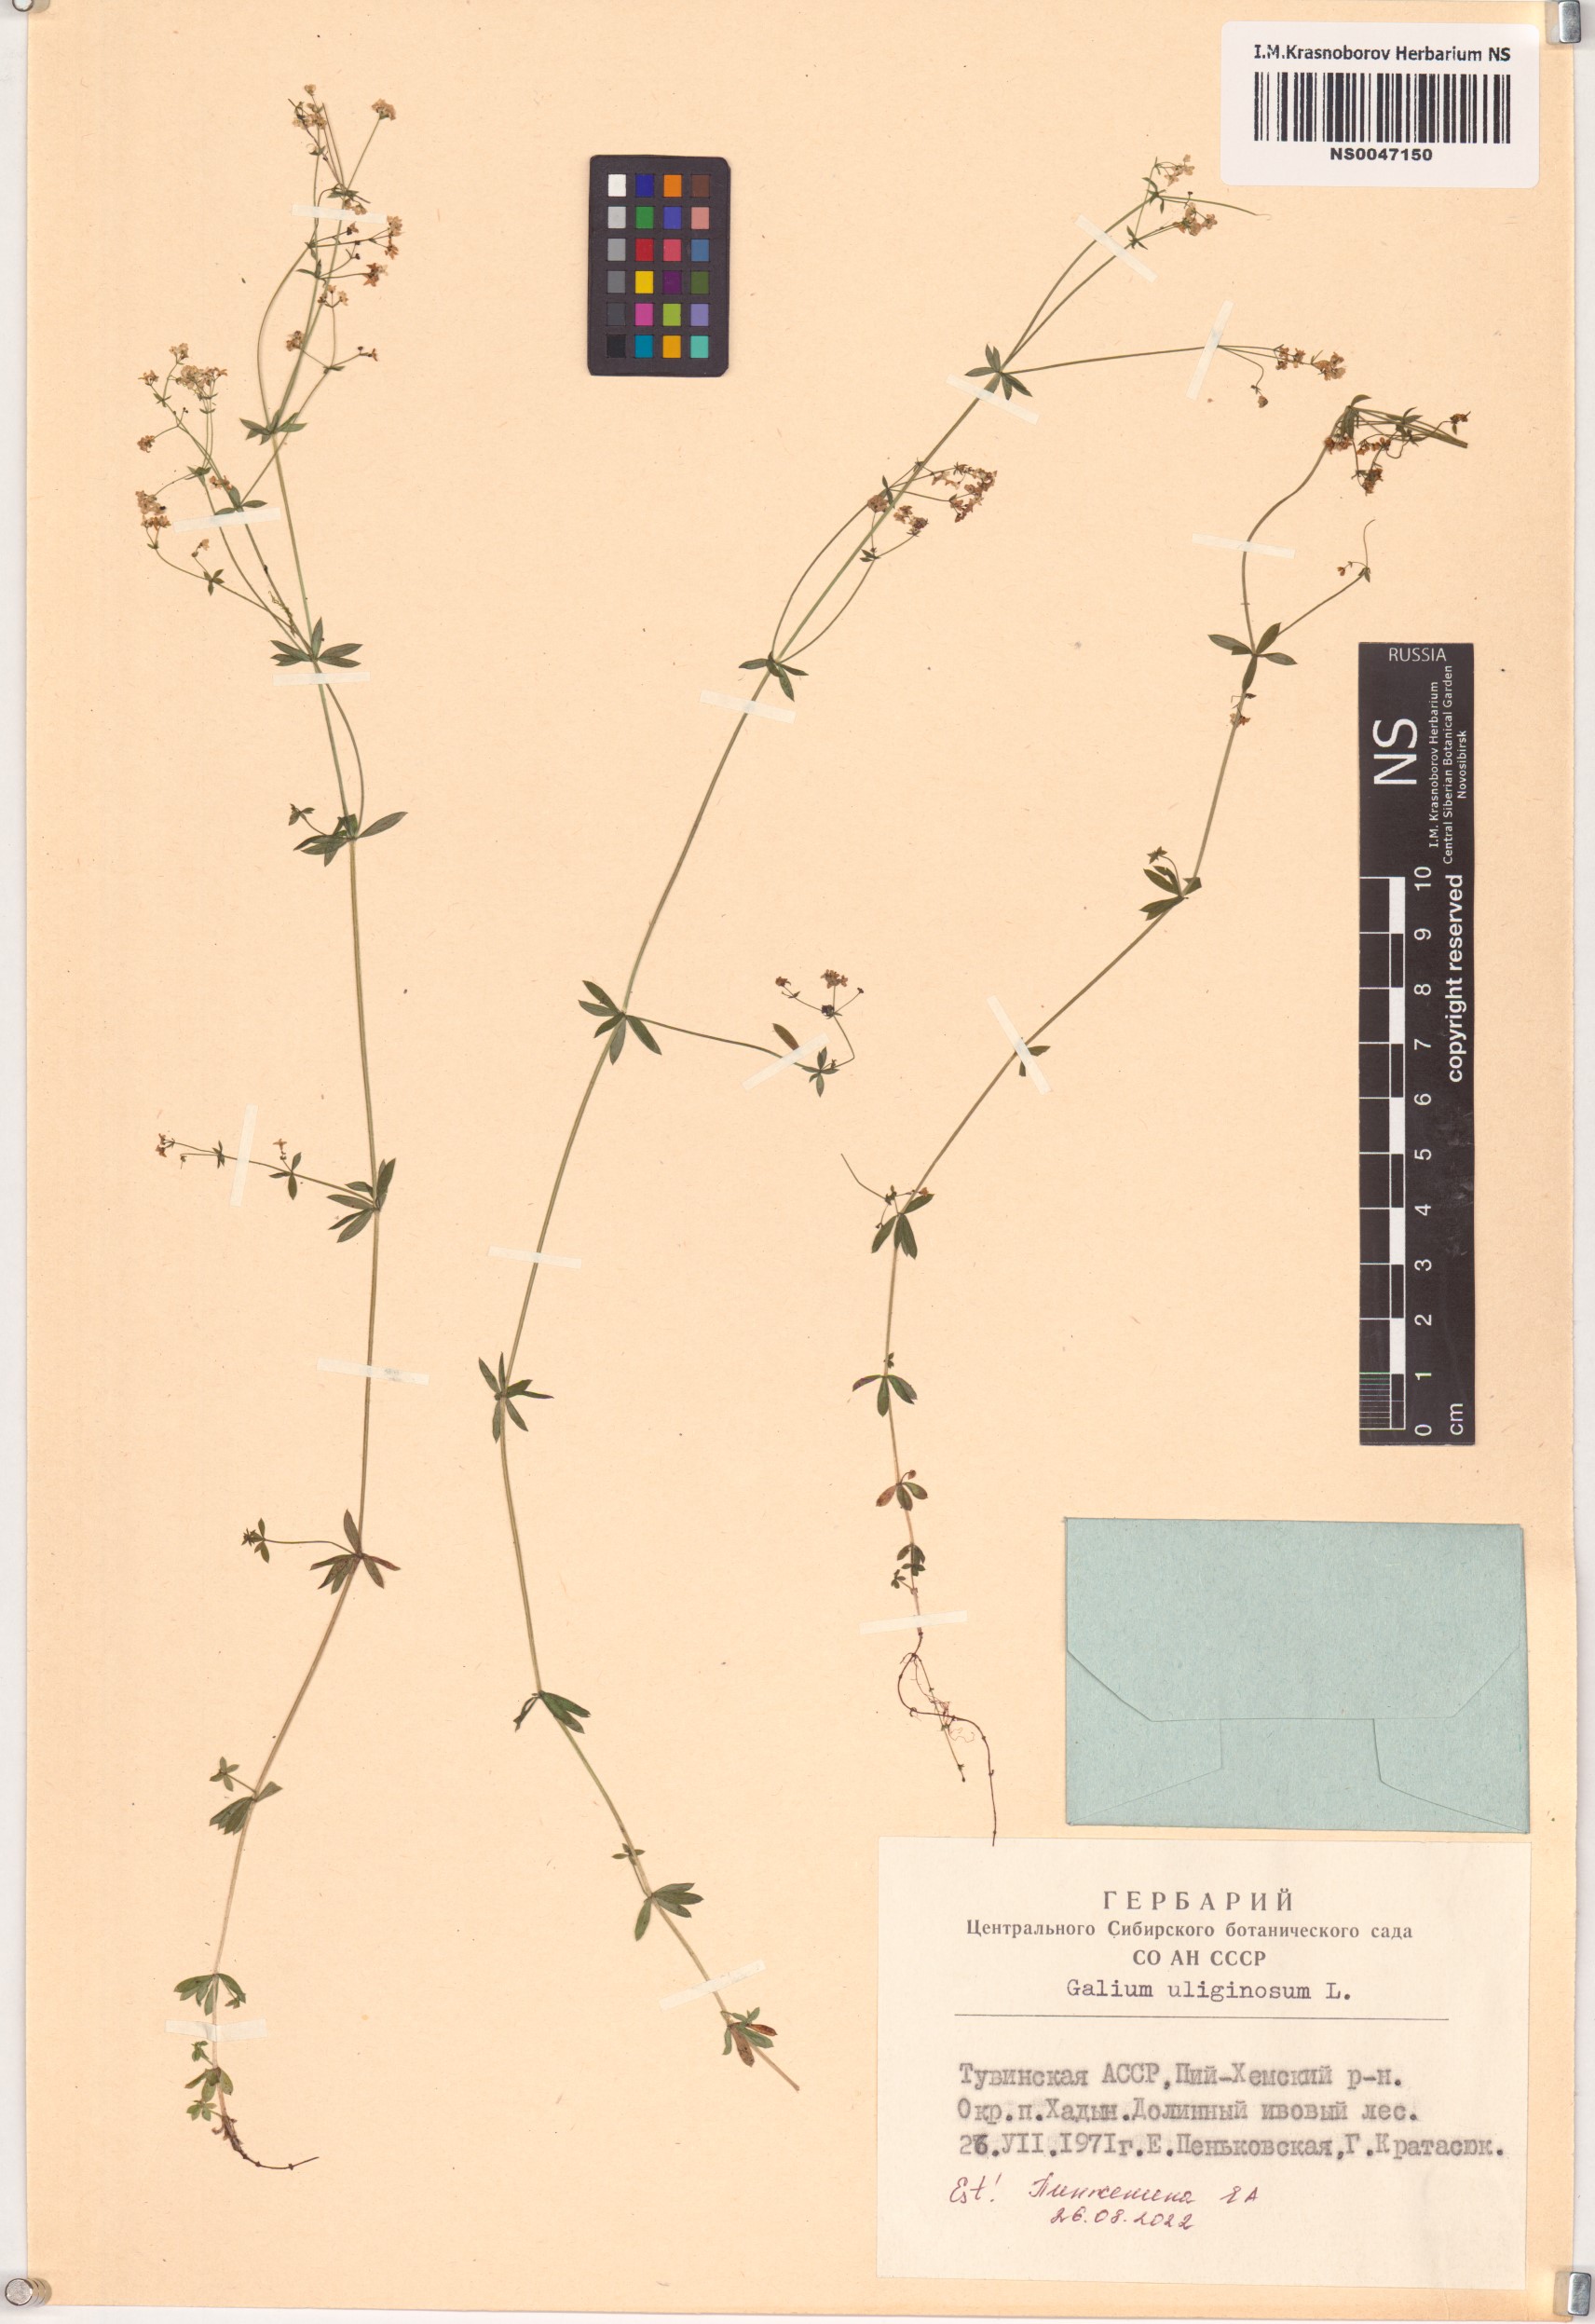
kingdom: Plantae
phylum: Tracheophyta
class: Magnoliopsida
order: Gentianales
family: Rubiaceae
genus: Galium
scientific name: Galium uliginosum
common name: Fen bedstraw
